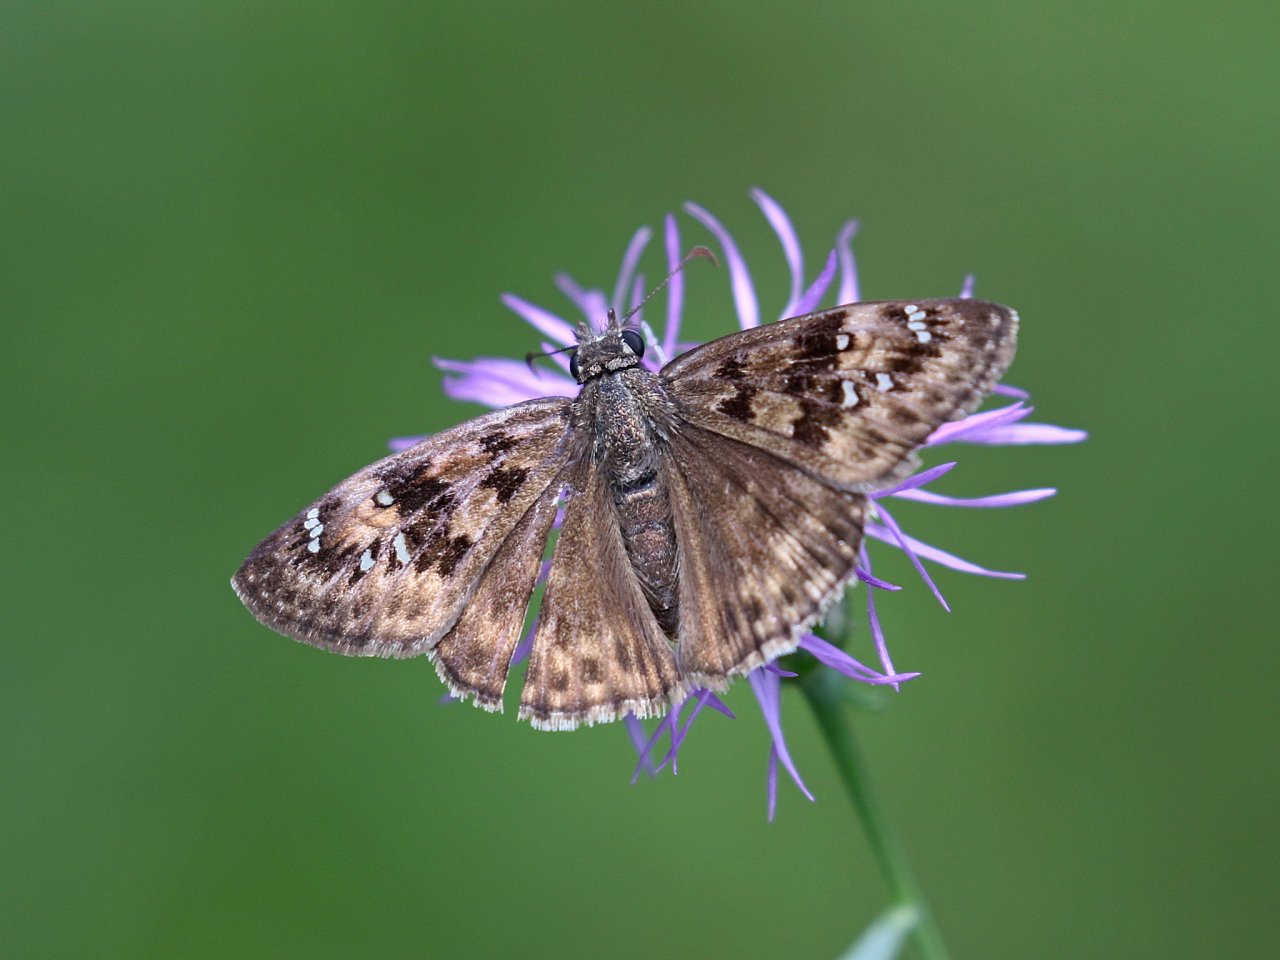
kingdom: Animalia
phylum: Arthropoda
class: Insecta
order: Lepidoptera
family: Hesperiidae
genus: Gesta
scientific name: Gesta
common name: Horace's Duskywing
